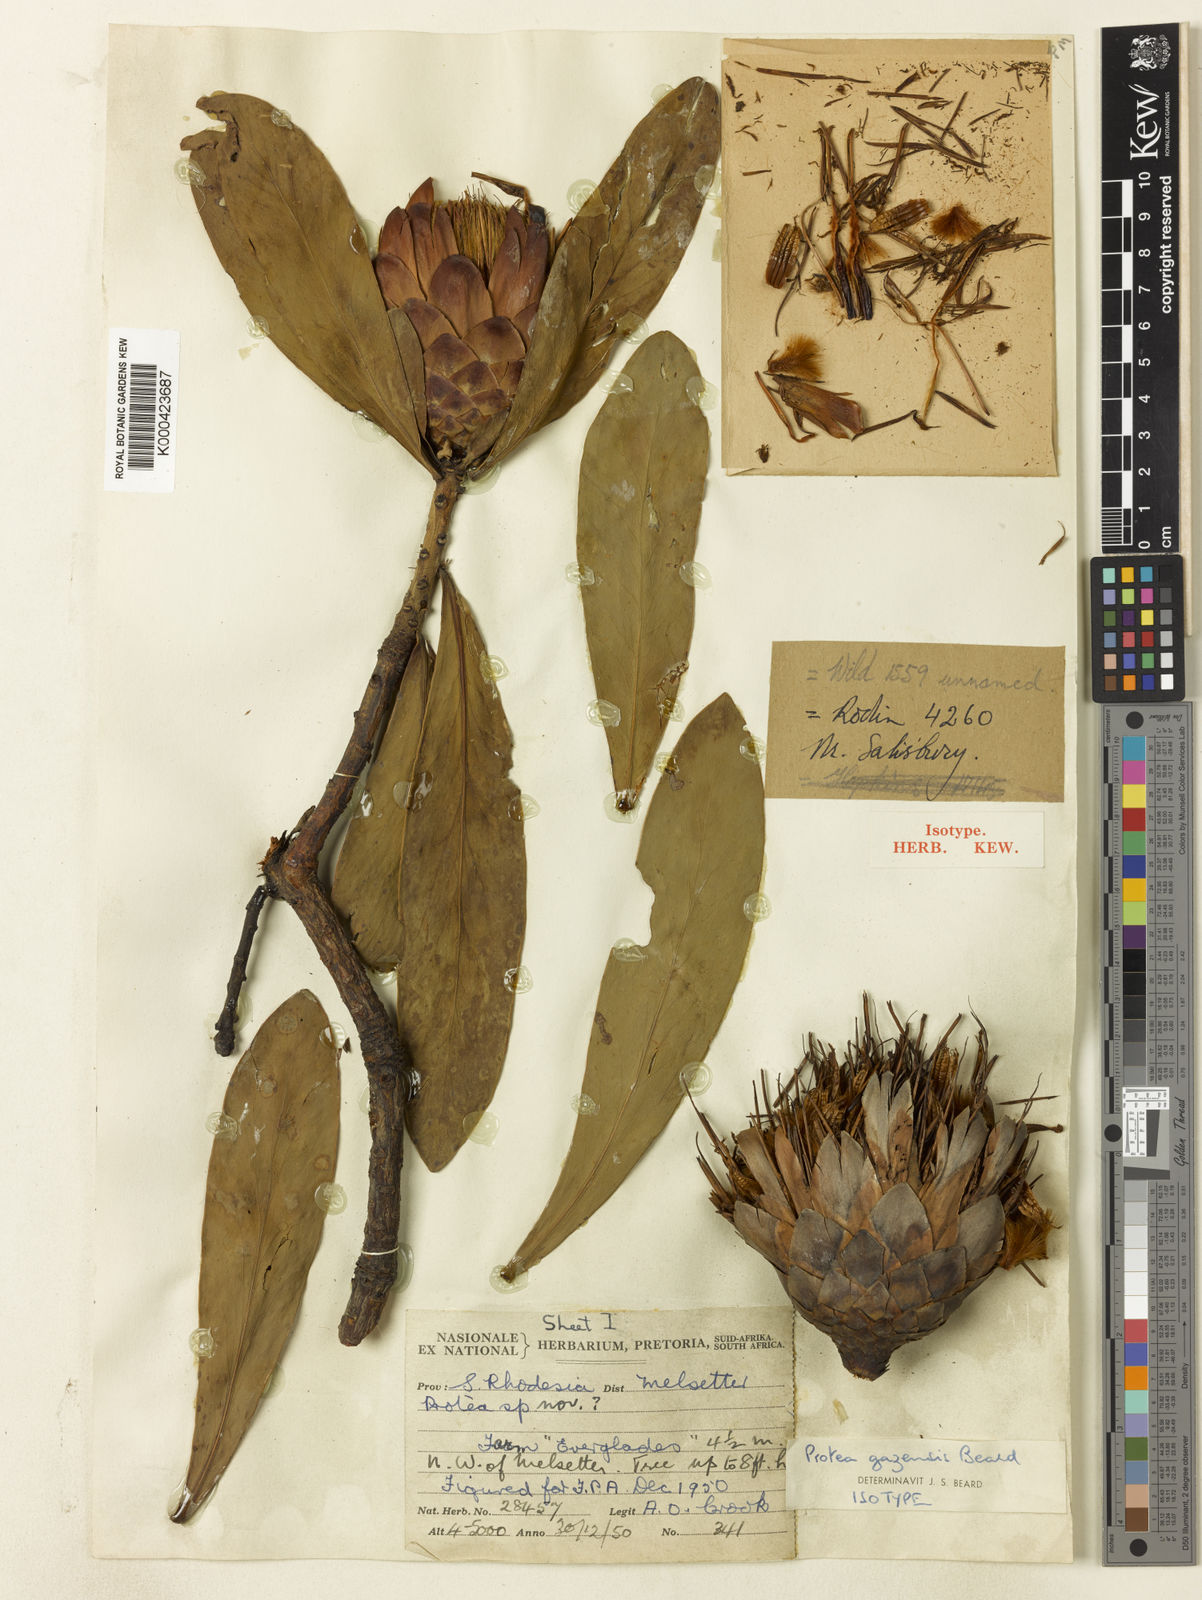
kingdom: Plantae
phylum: Tracheophyta
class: Magnoliopsida
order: Proteales
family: Proteaceae
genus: Protea
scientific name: Protea caffra
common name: Common sugarbush
